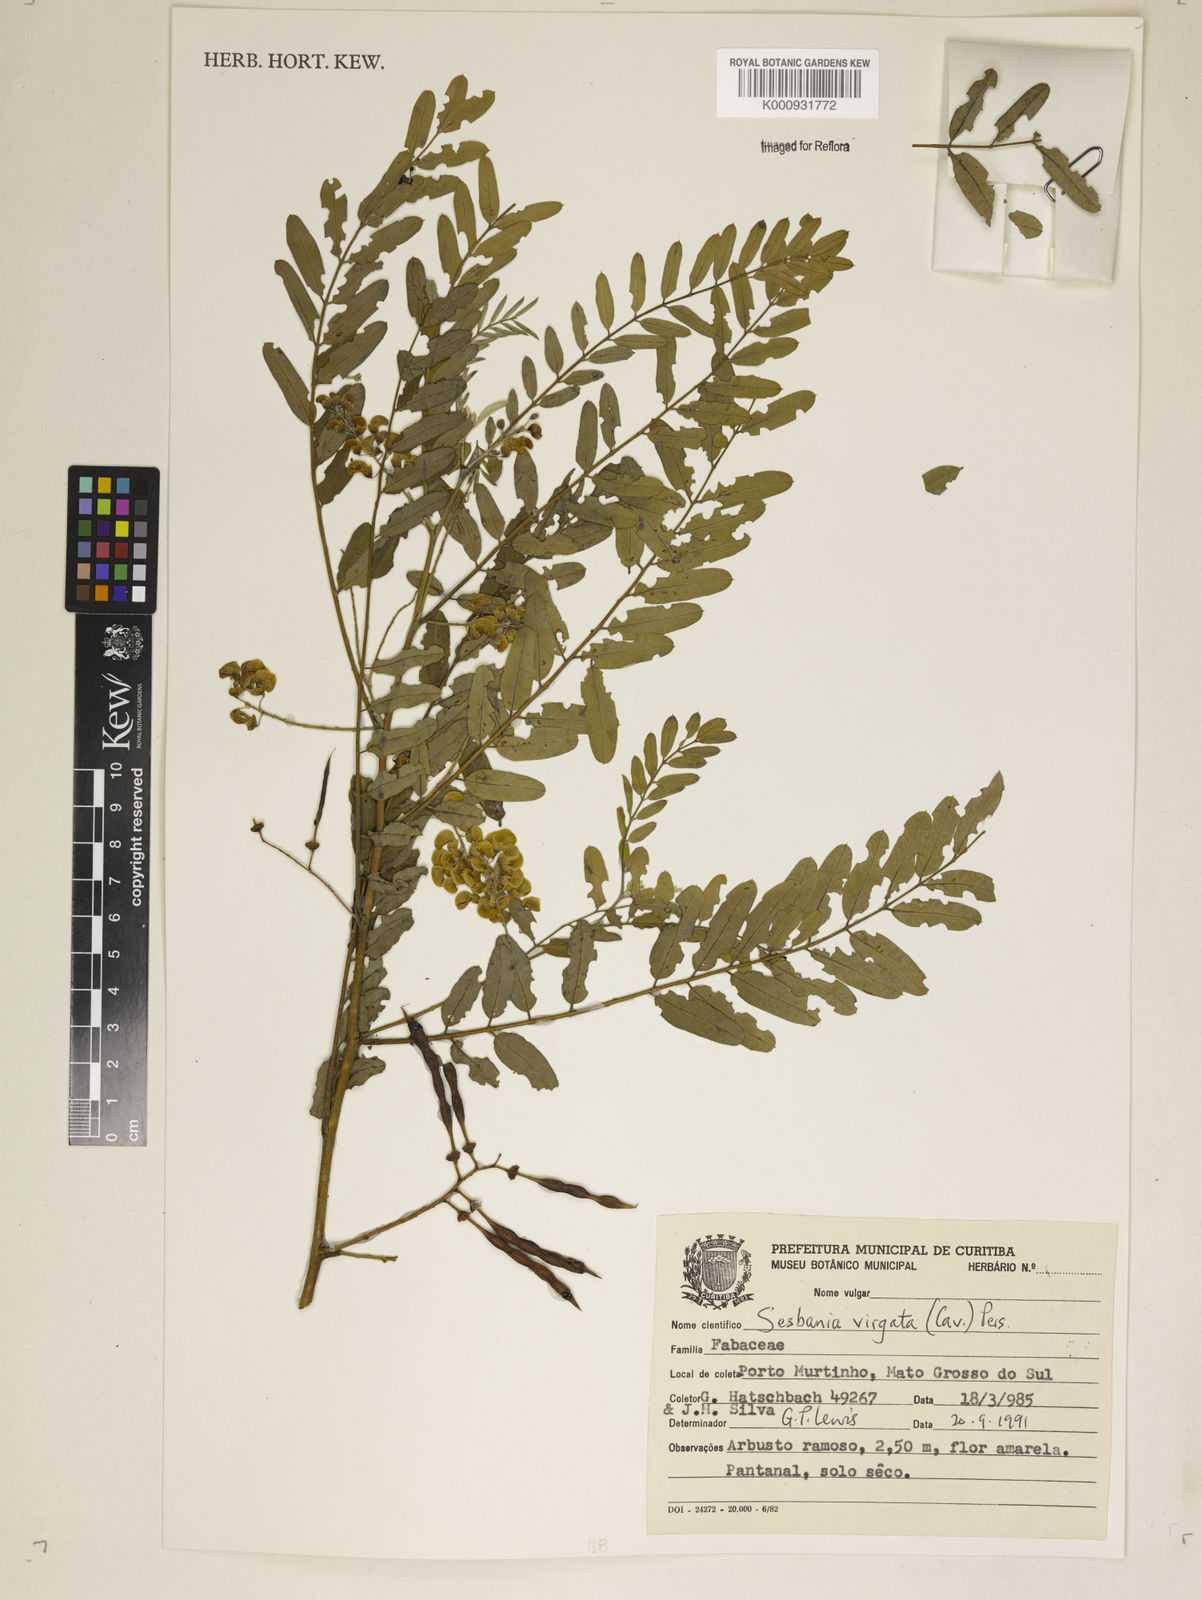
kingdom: Plantae
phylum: Tracheophyta
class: Magnoliopsida
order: Fabales
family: Fabaceae
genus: Sesbania
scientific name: Sesbania
